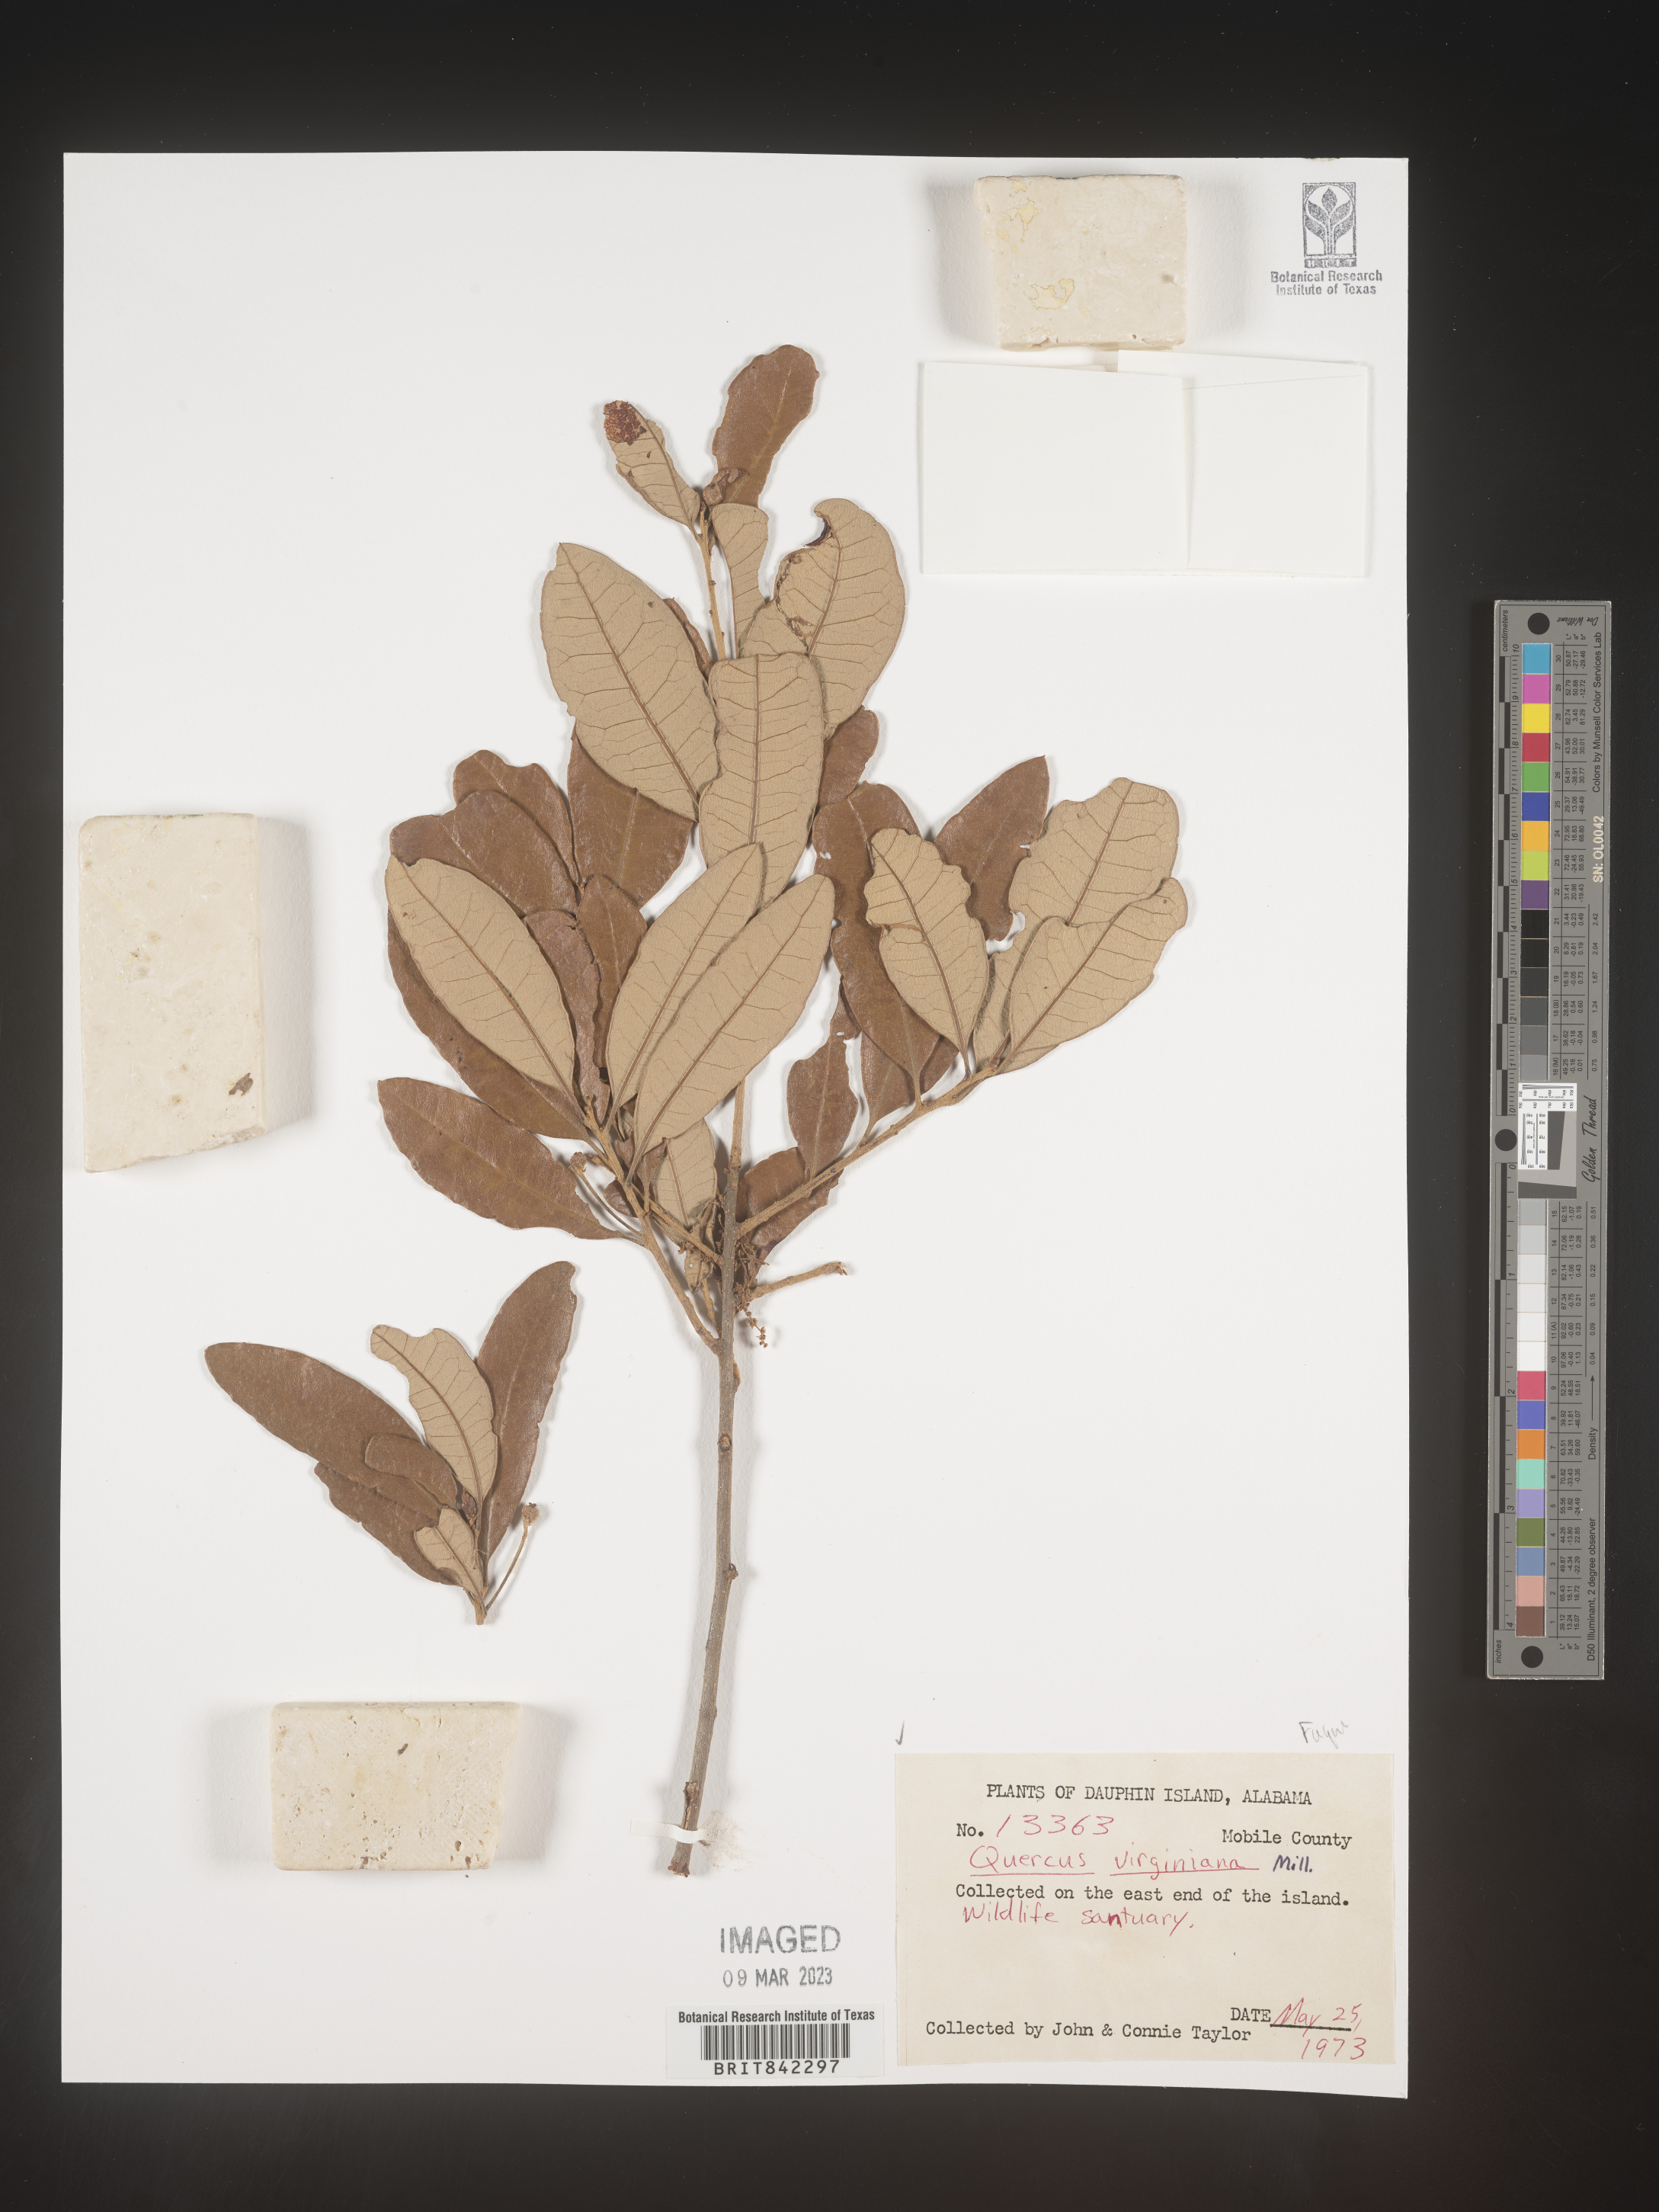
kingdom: Plantae
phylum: Tracheophyta
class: Magnoliopsida
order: Fagales
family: Fagaceae
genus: Quercus
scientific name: Quercus virginiana
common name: Southern live oak
